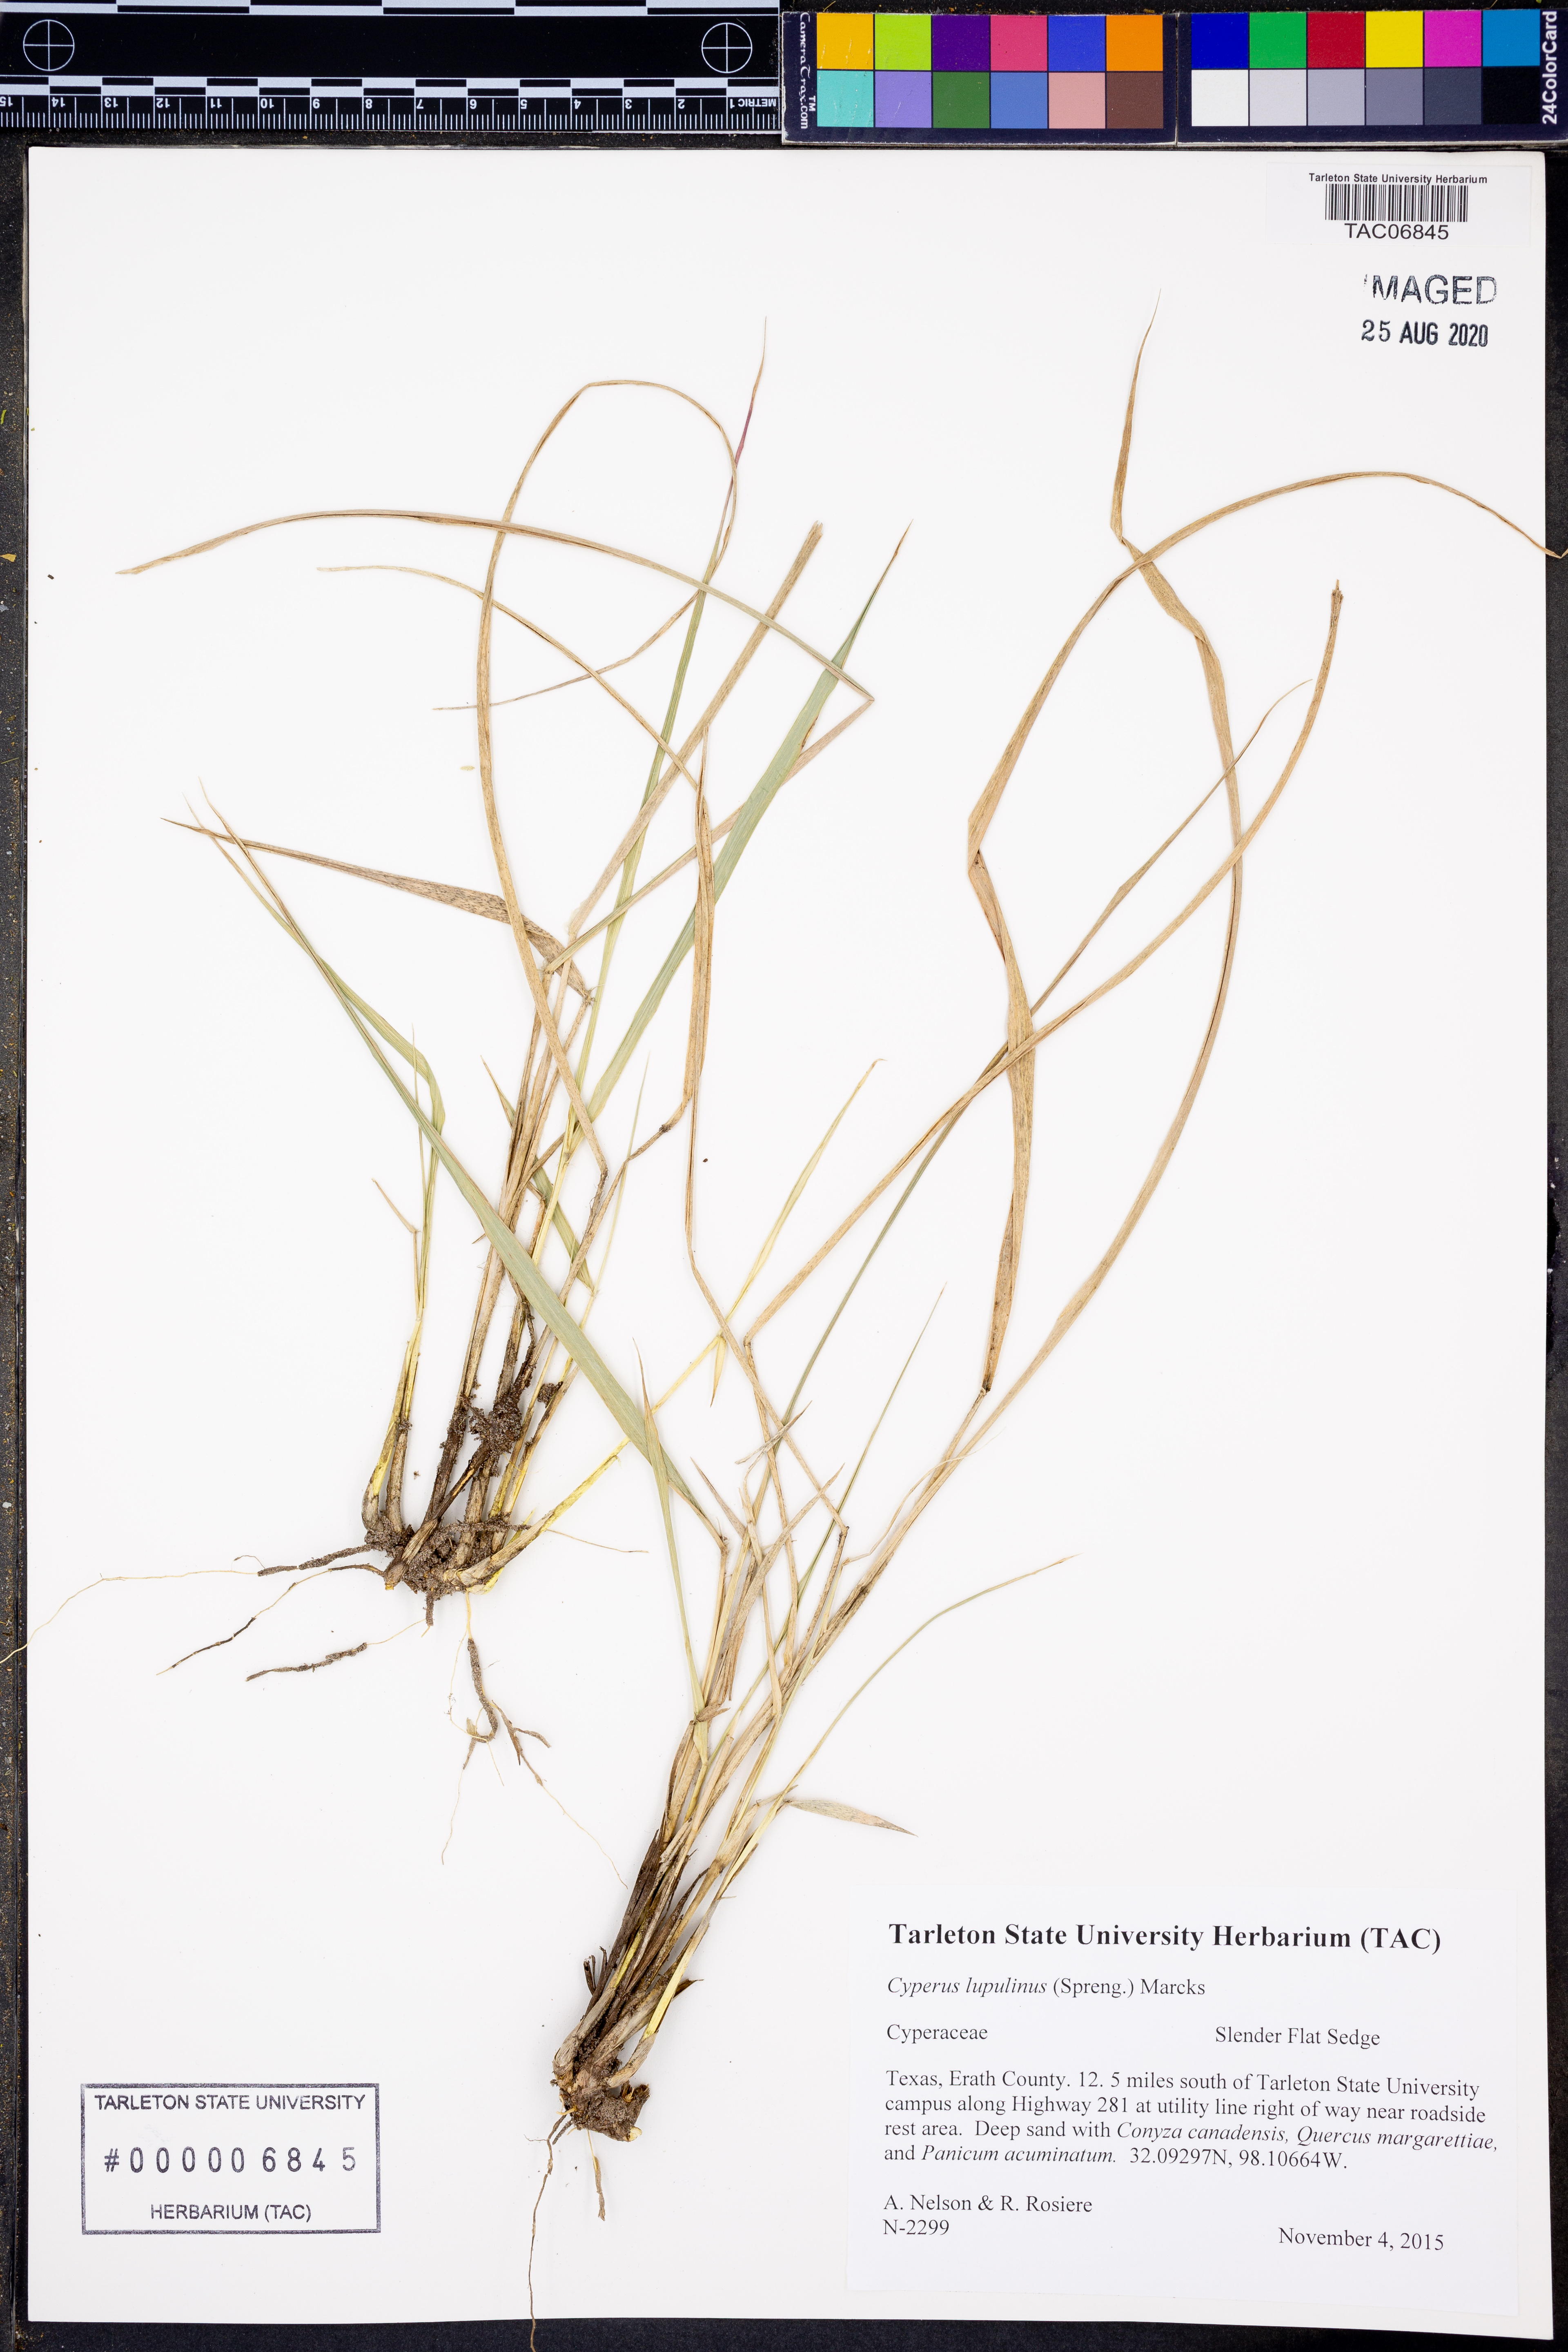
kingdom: Plantae
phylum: Tracheophyta
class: Liliopsida
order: Poales
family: Cyperaceae
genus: Cyperus
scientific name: Cyperus lupulinus
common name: Great plains flatsedge
